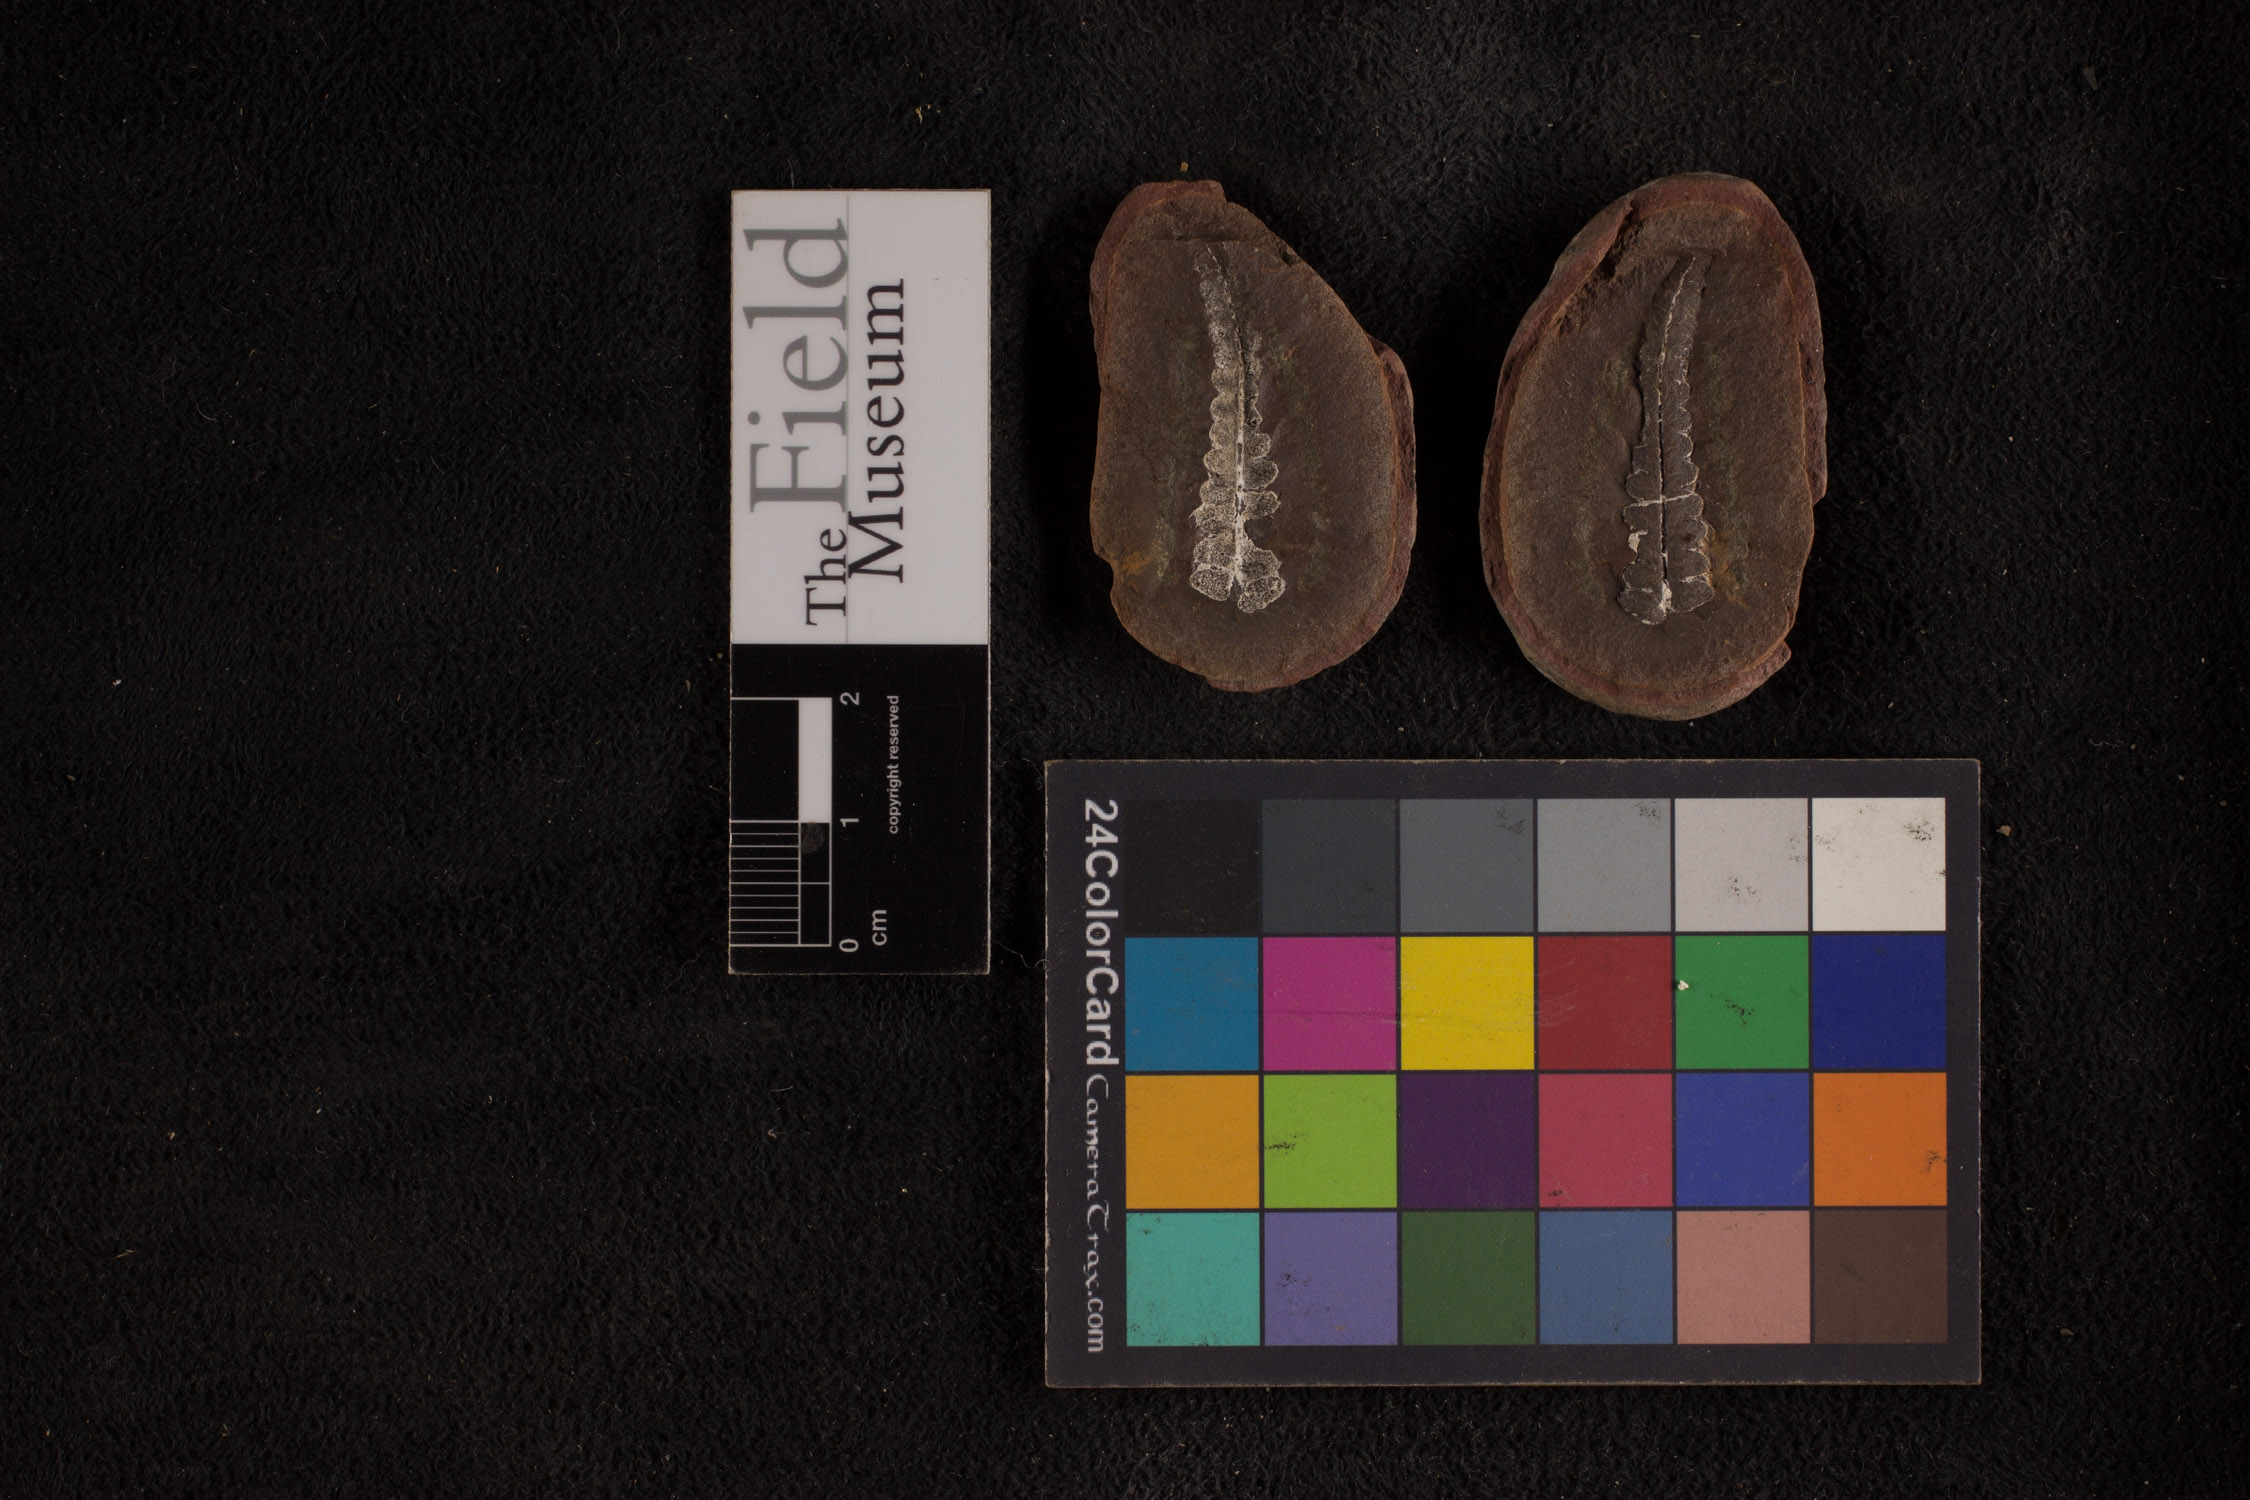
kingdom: Plantae
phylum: Tracheophyta
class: Polypodiopsida
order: Marattiales
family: Asterothecaceae
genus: Pecopteris
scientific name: Pecopteris
